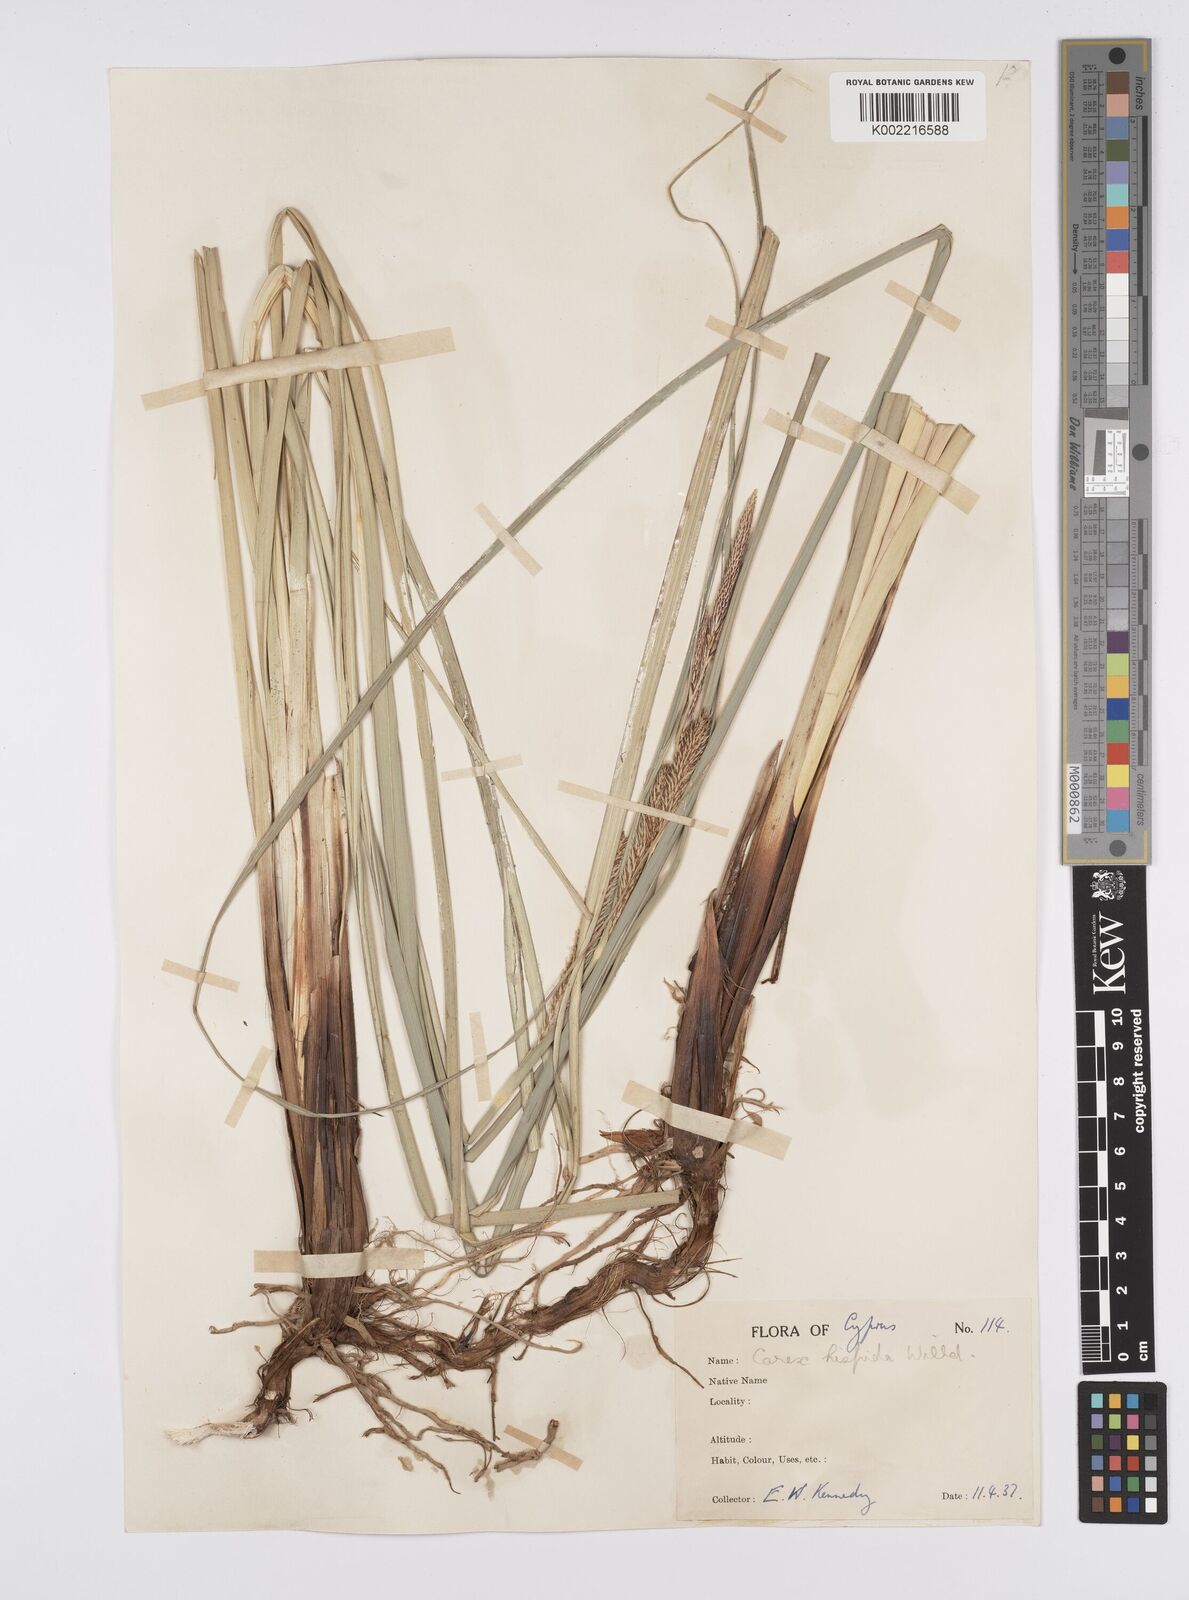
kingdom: Plantae
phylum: Tracheophyta
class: Liliopsida
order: Poales
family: Cyperaceae
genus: Carex
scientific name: Carex hispida
